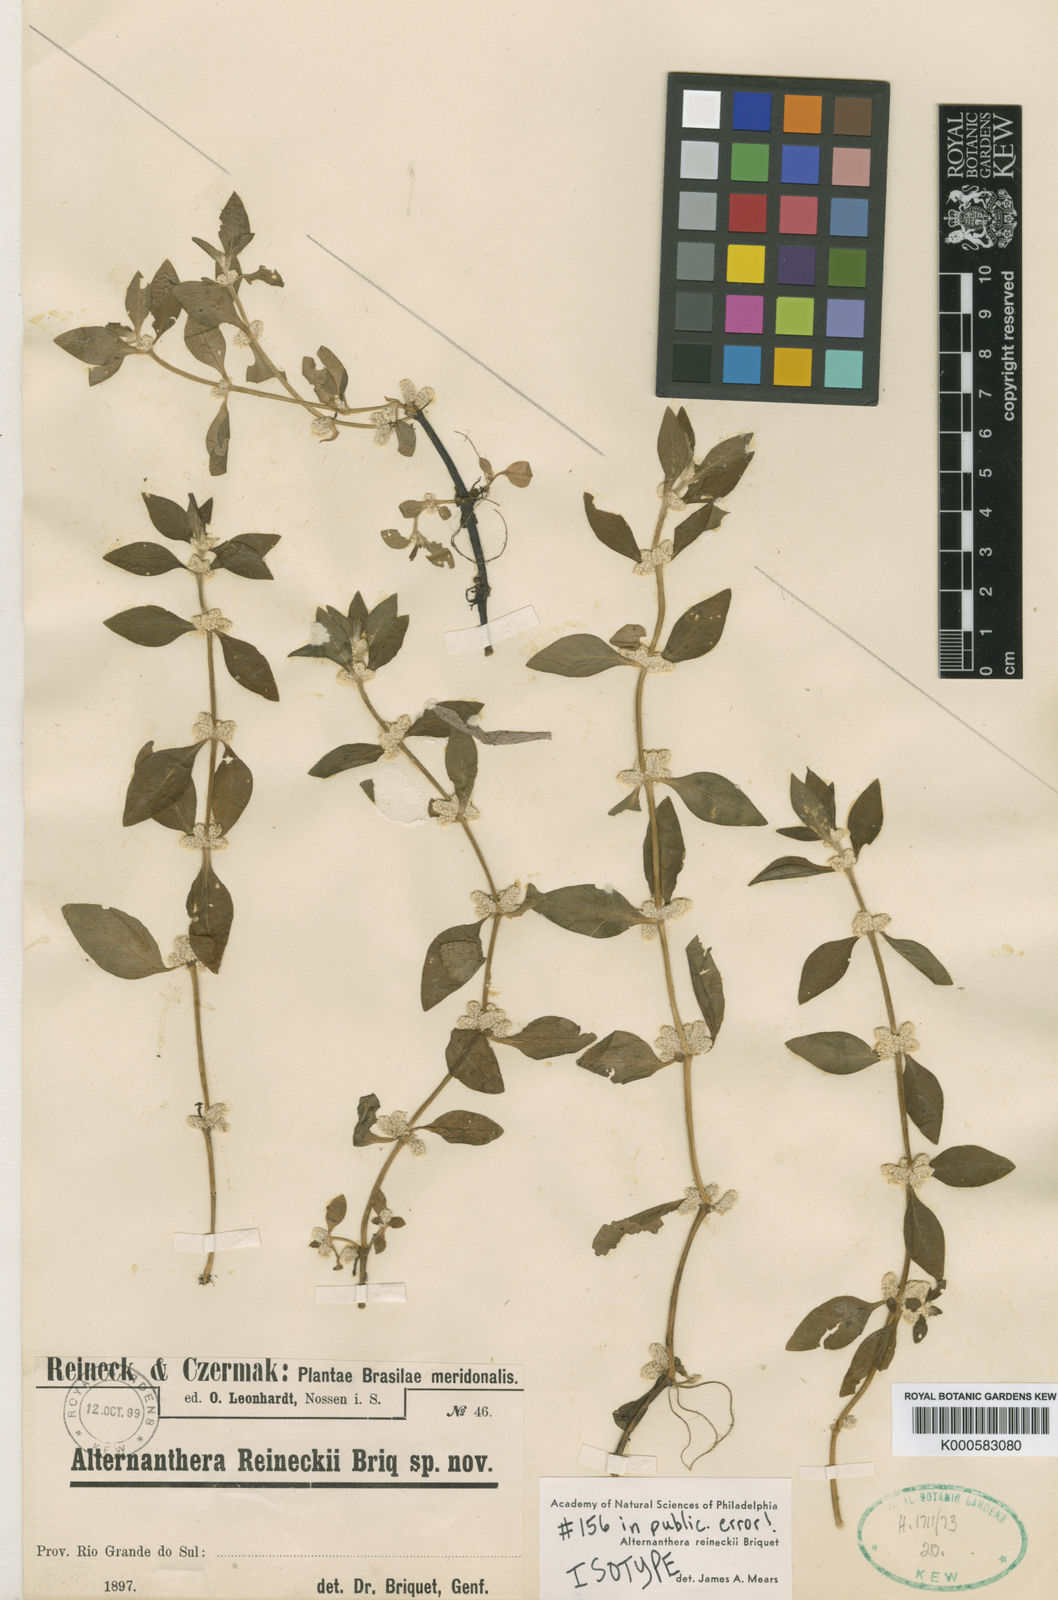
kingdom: Plantae
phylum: Tracheophyta
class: Magnoliopsida
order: Caryophyllales
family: Amaranthaceae
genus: Alternanthera
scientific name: Alternanthera reineckii
